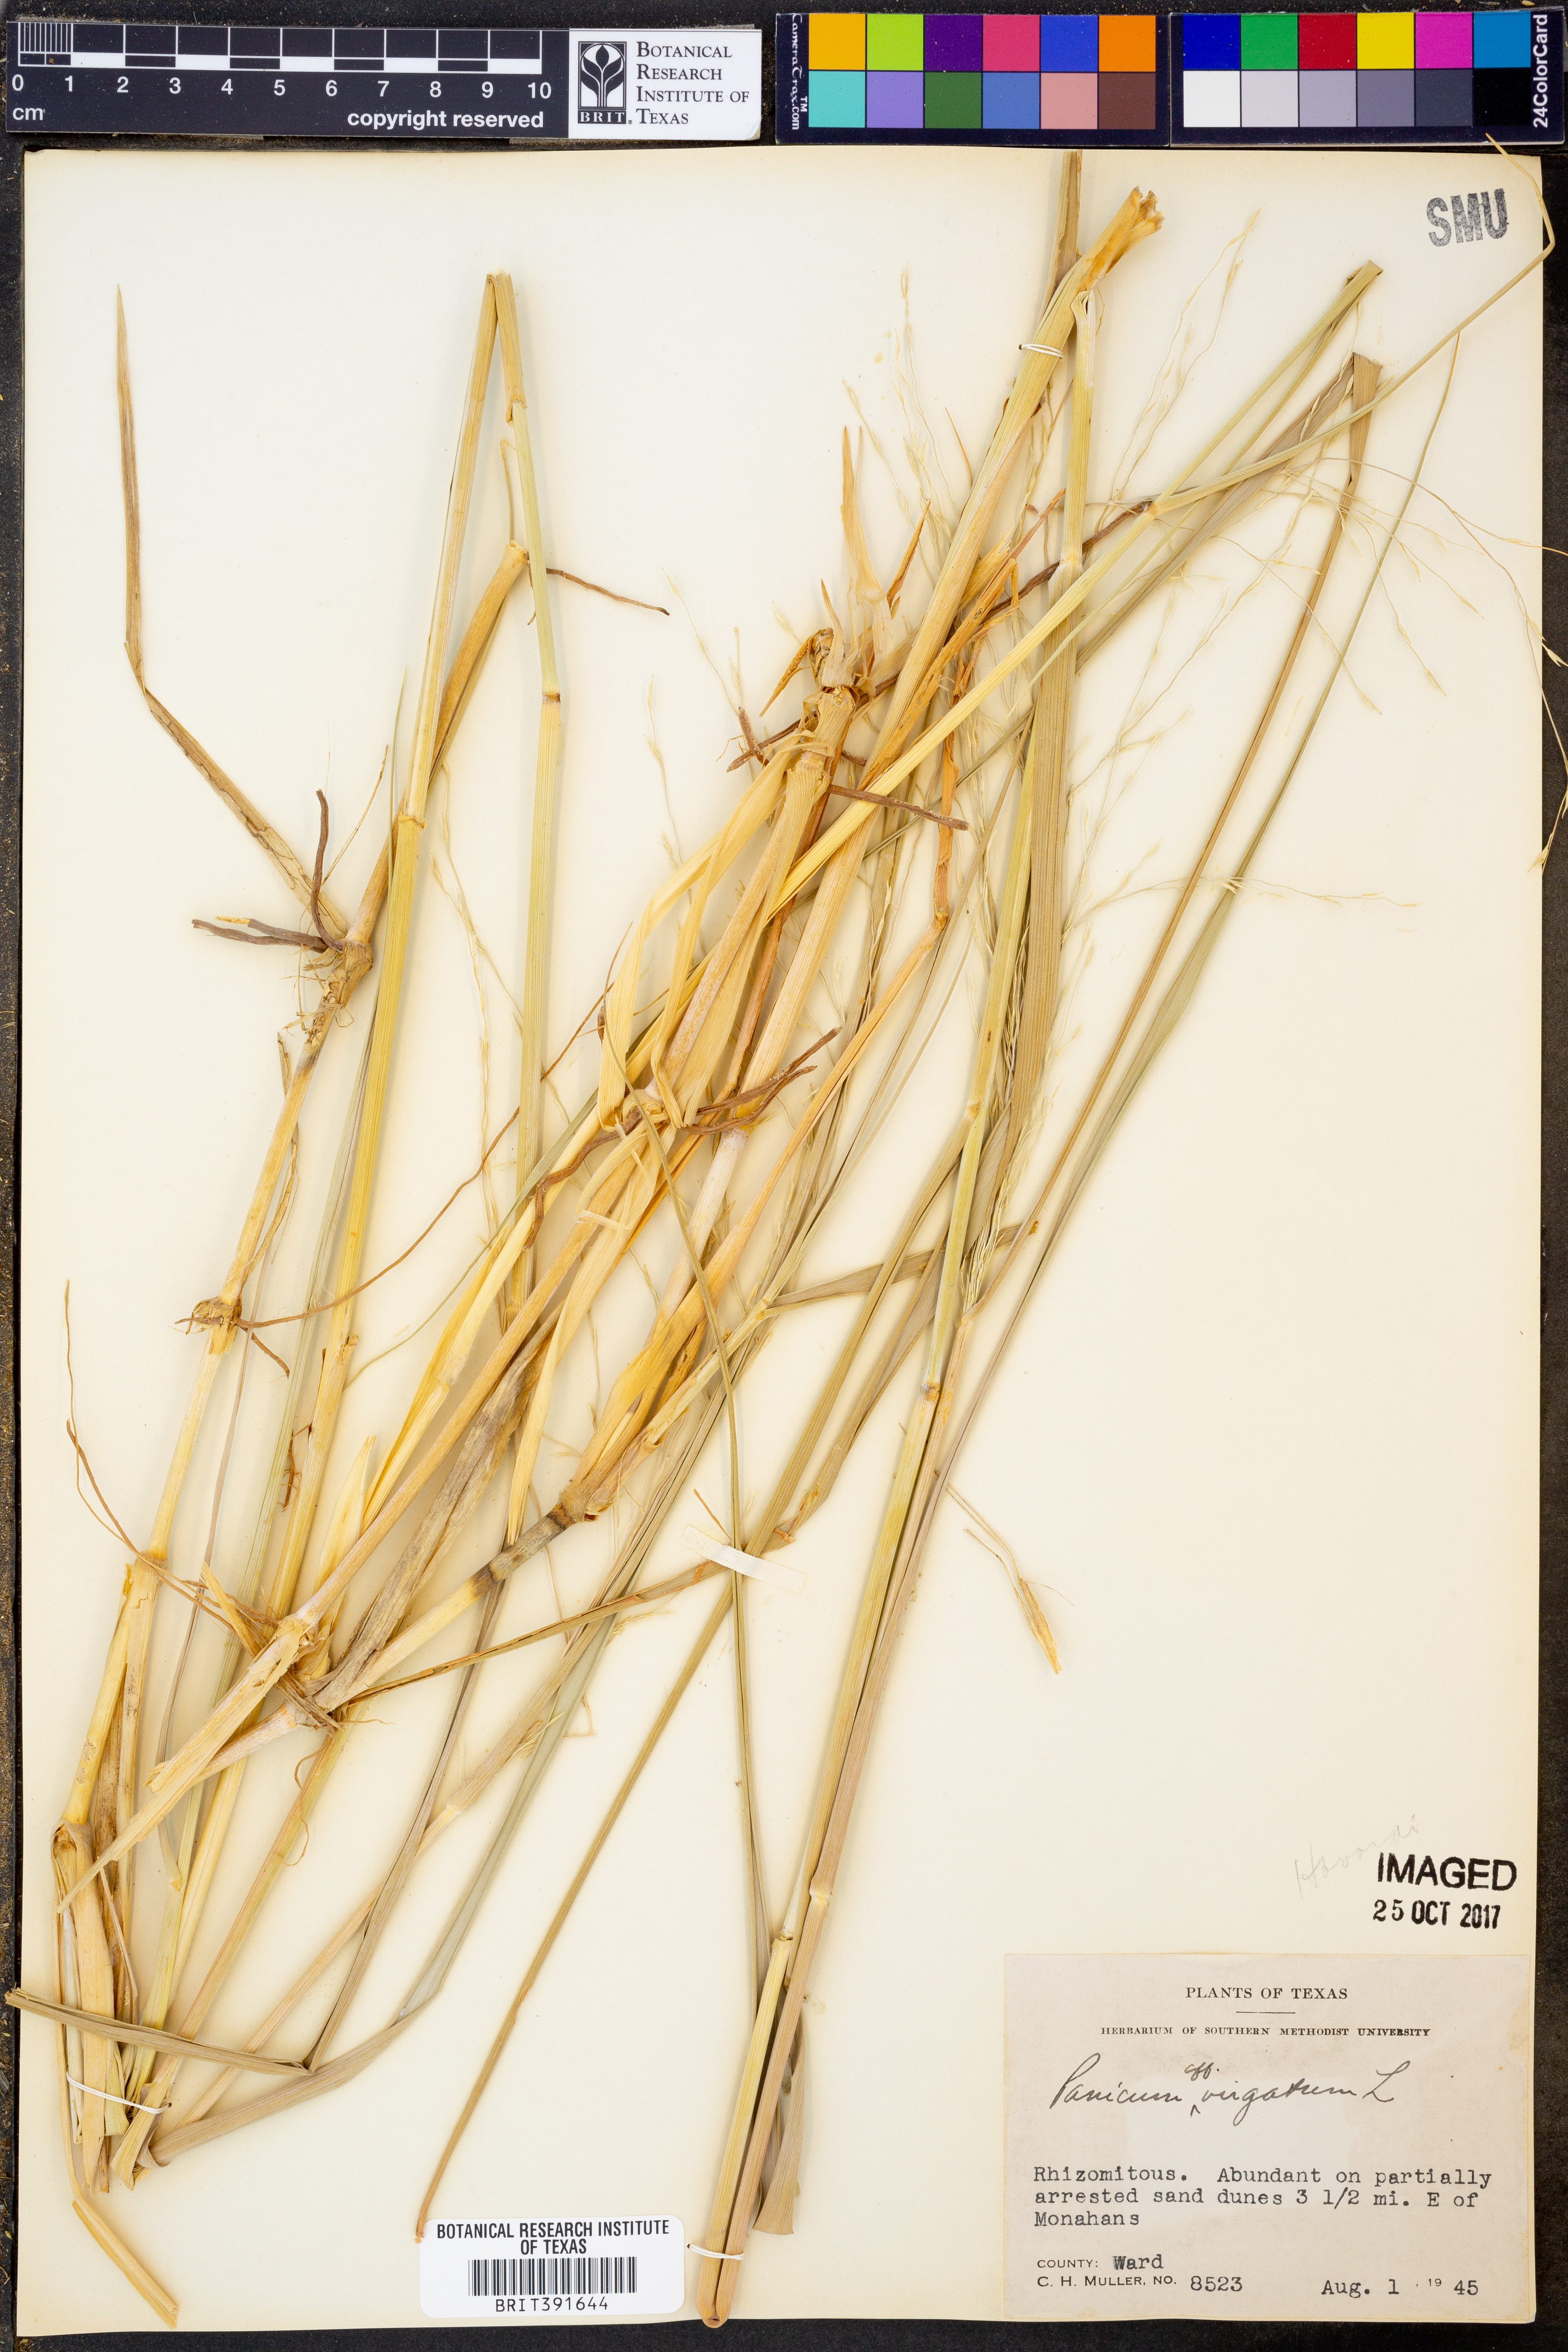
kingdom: Plantae
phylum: Tracheophyta
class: Liliopsida
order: Poales
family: Poaceae
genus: Panicum
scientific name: Panicum virgatum
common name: Switchgrass
